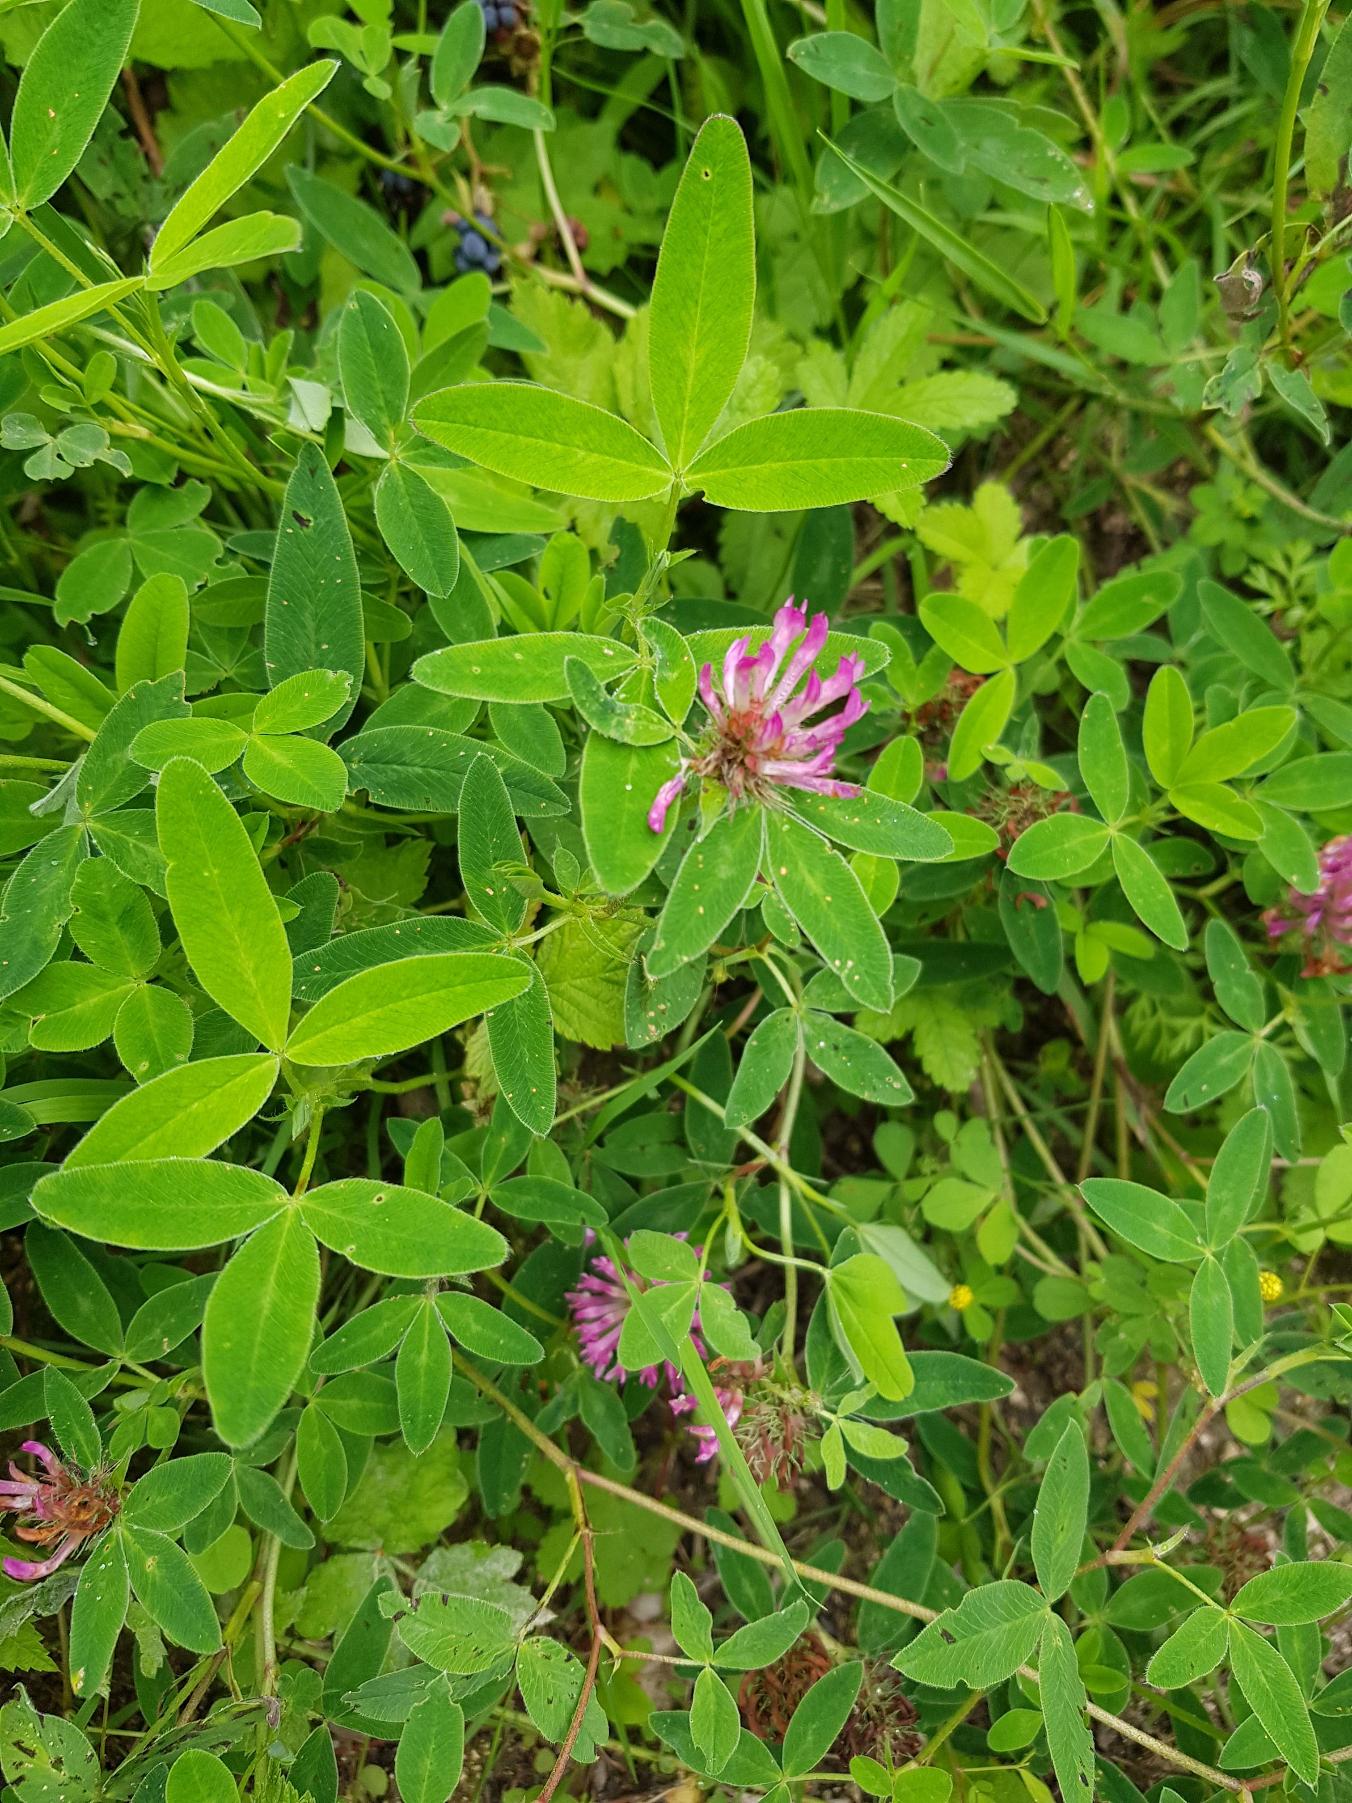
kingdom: Plantae
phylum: Tracheophyta
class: Magnoliopsida
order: Fabales
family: Fabaceae
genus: Trifolium
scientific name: Trifolium medium
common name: Bugtet kløver
